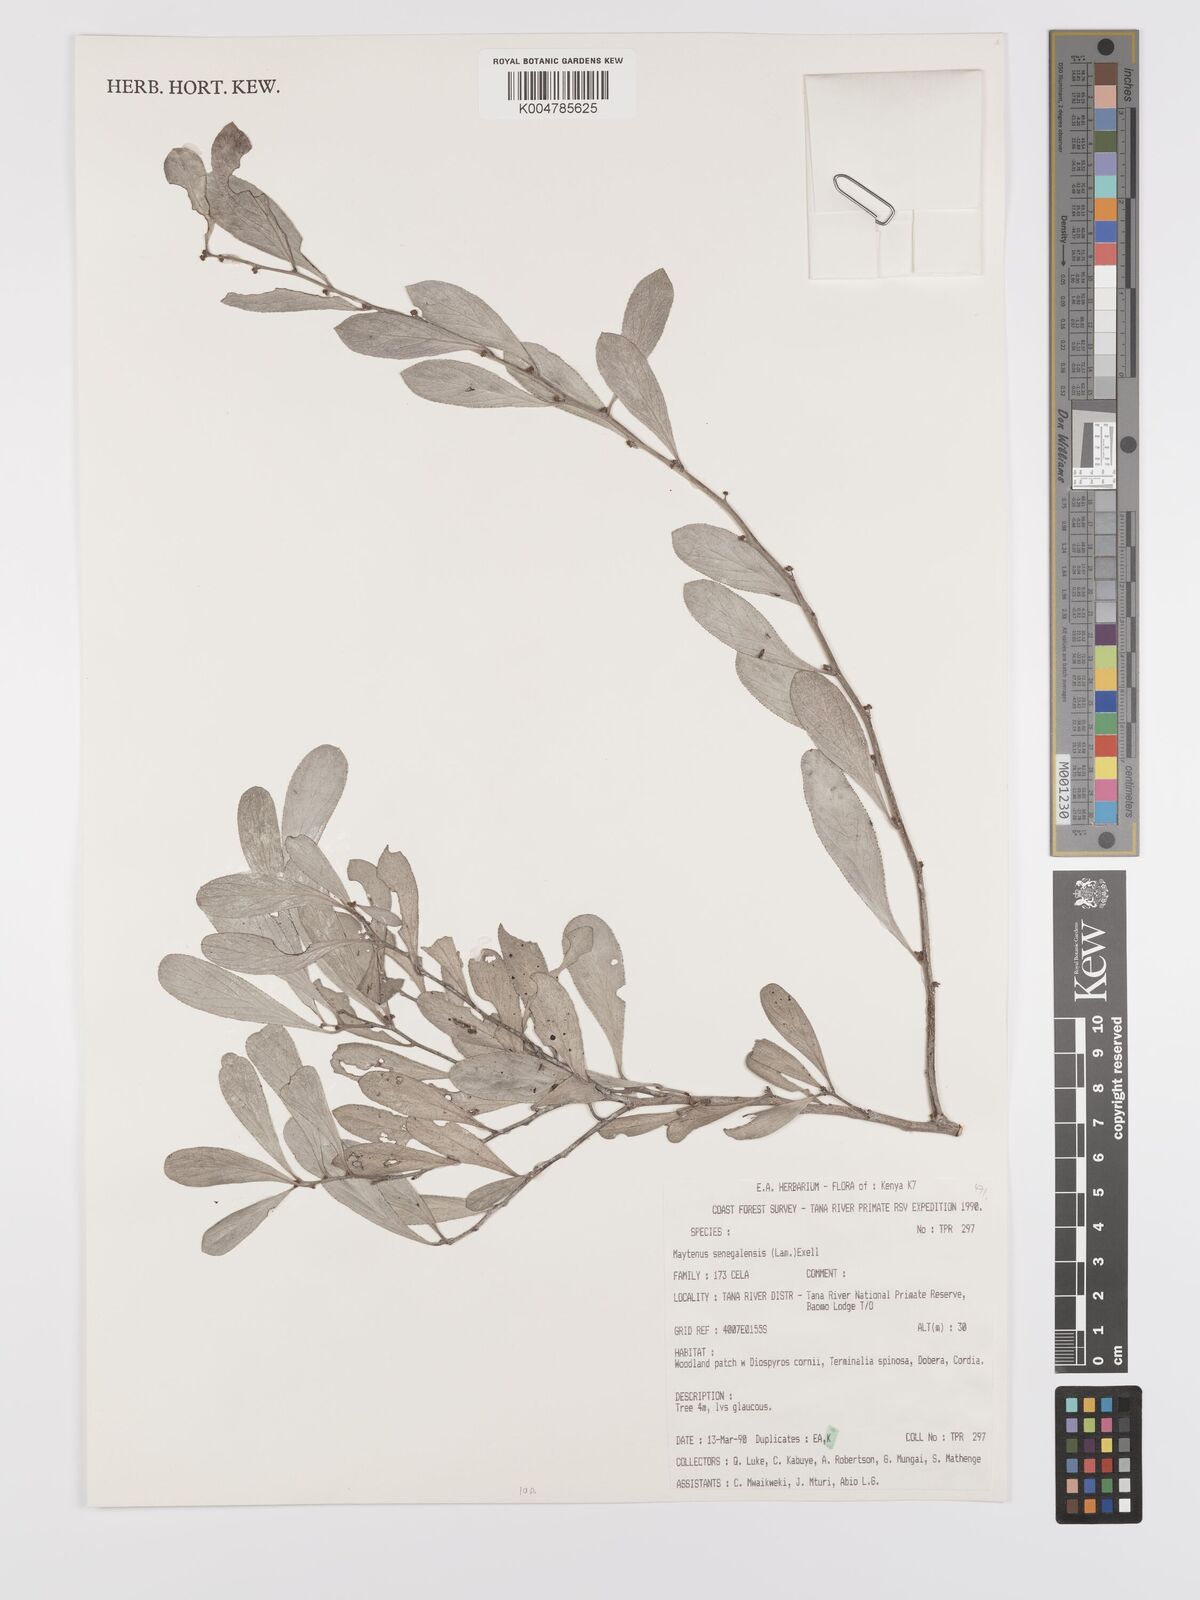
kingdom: Plantae
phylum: Tracheophyta
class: Magnoliopsida
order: Celastrales
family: Celastraceae
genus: Gymnosporia
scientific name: Gymnosporia senegalensis
